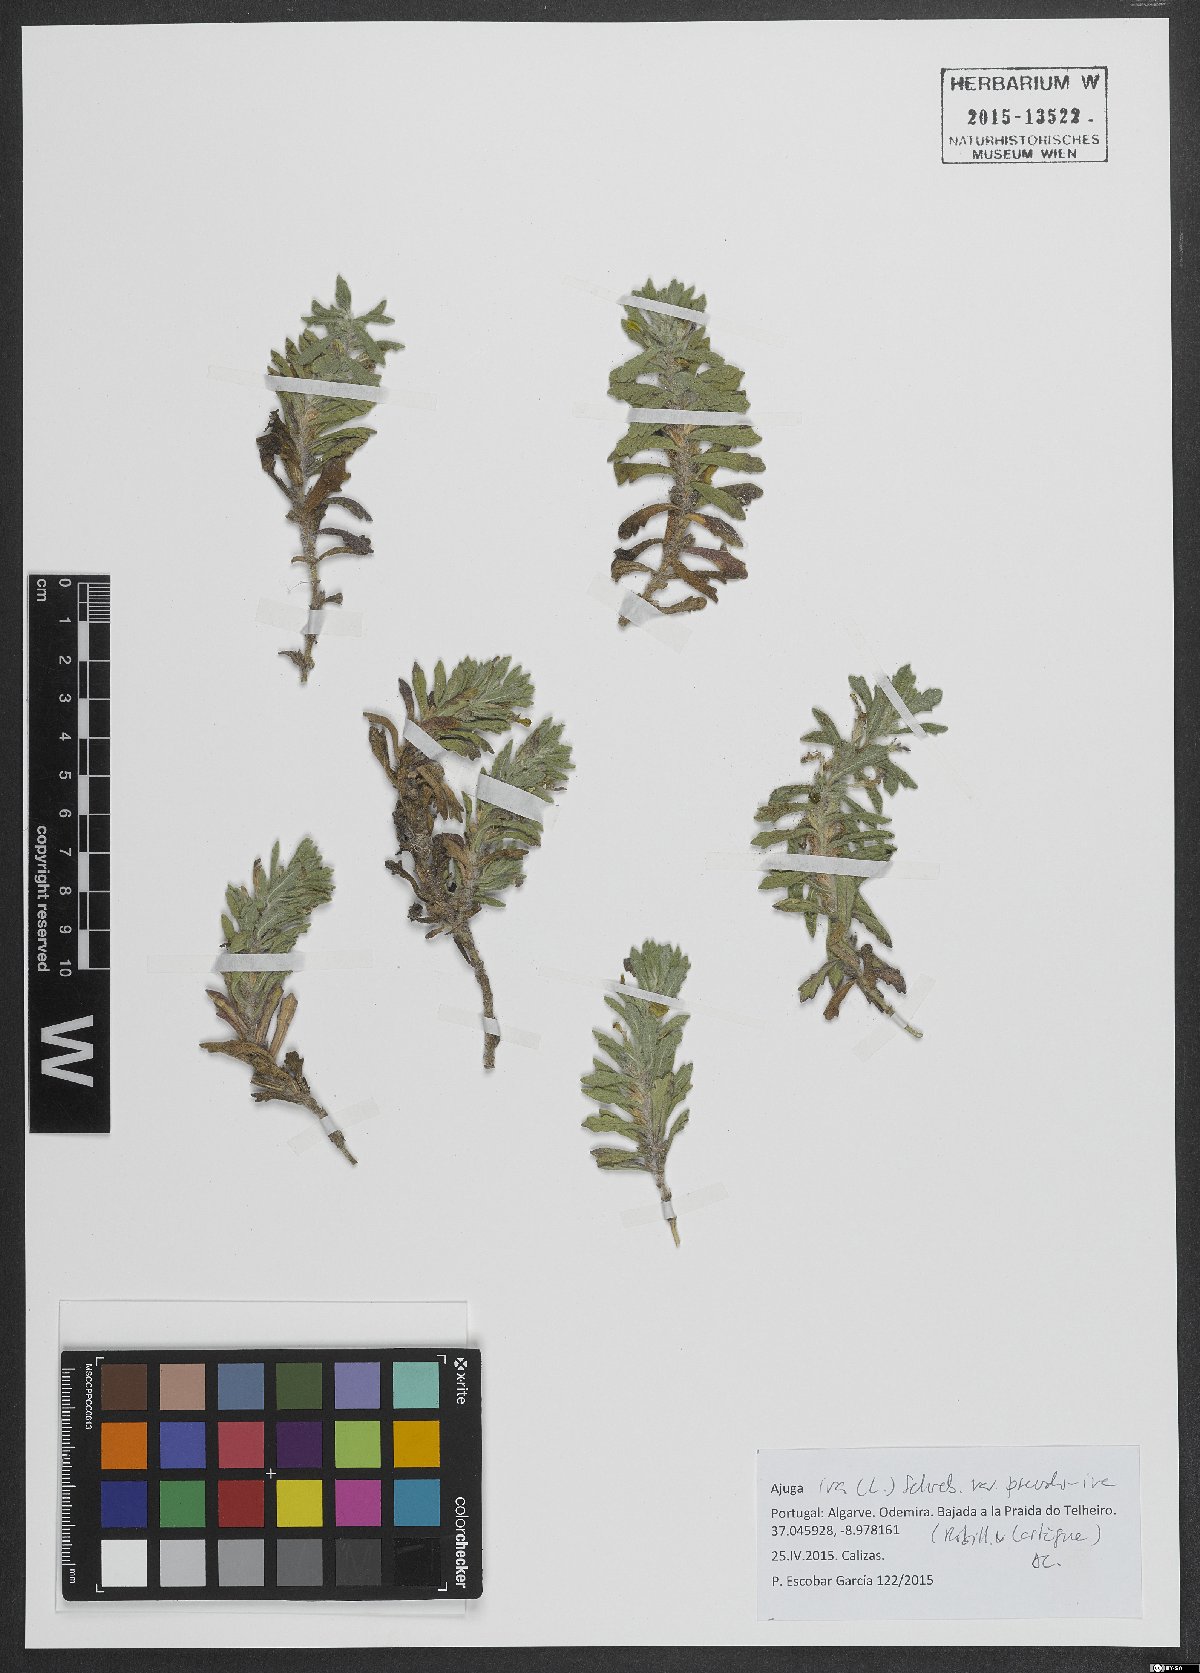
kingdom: Plantae
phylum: Tracheophyta
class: Magnoliopsida
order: Lamiales
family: Lamiaceae
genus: Ajuga
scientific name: Ajuga iva
